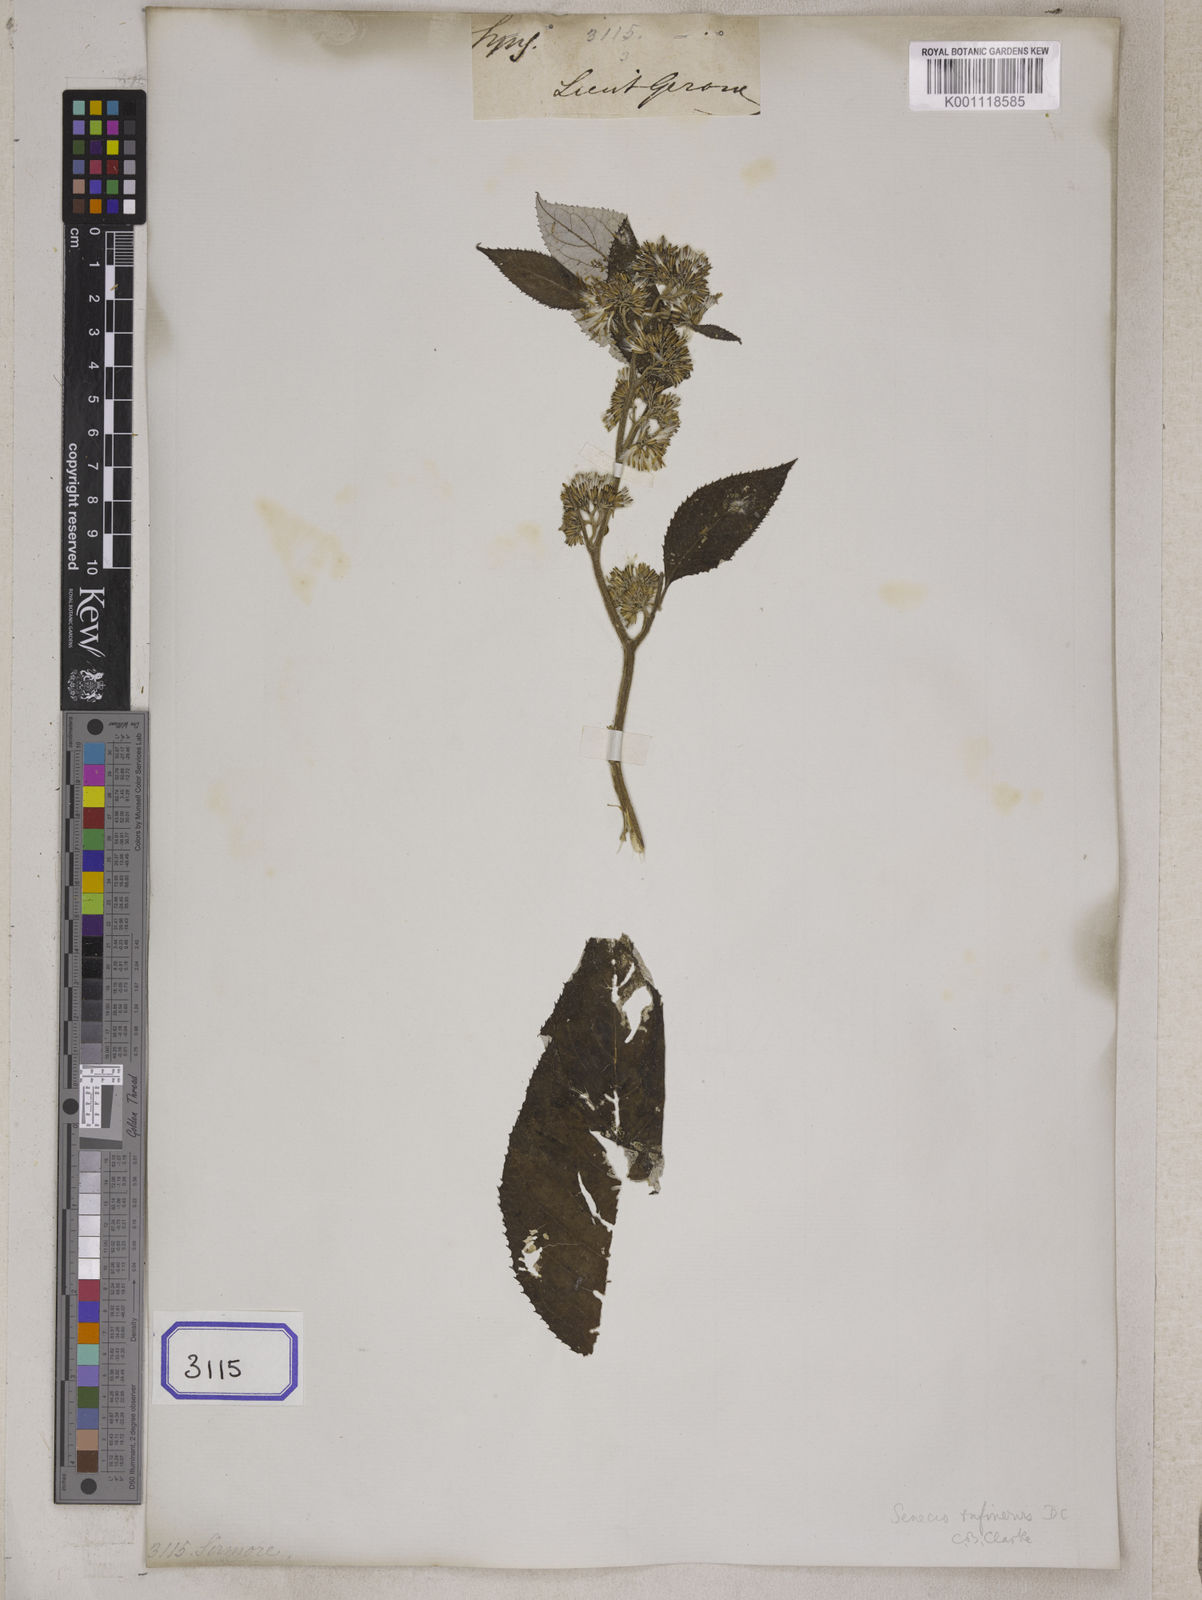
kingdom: Plantae
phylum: Tracheophyta
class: Magnoliopsida
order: Asterales
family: Asteraceae
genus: Synotis
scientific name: Synotis rufinervis
